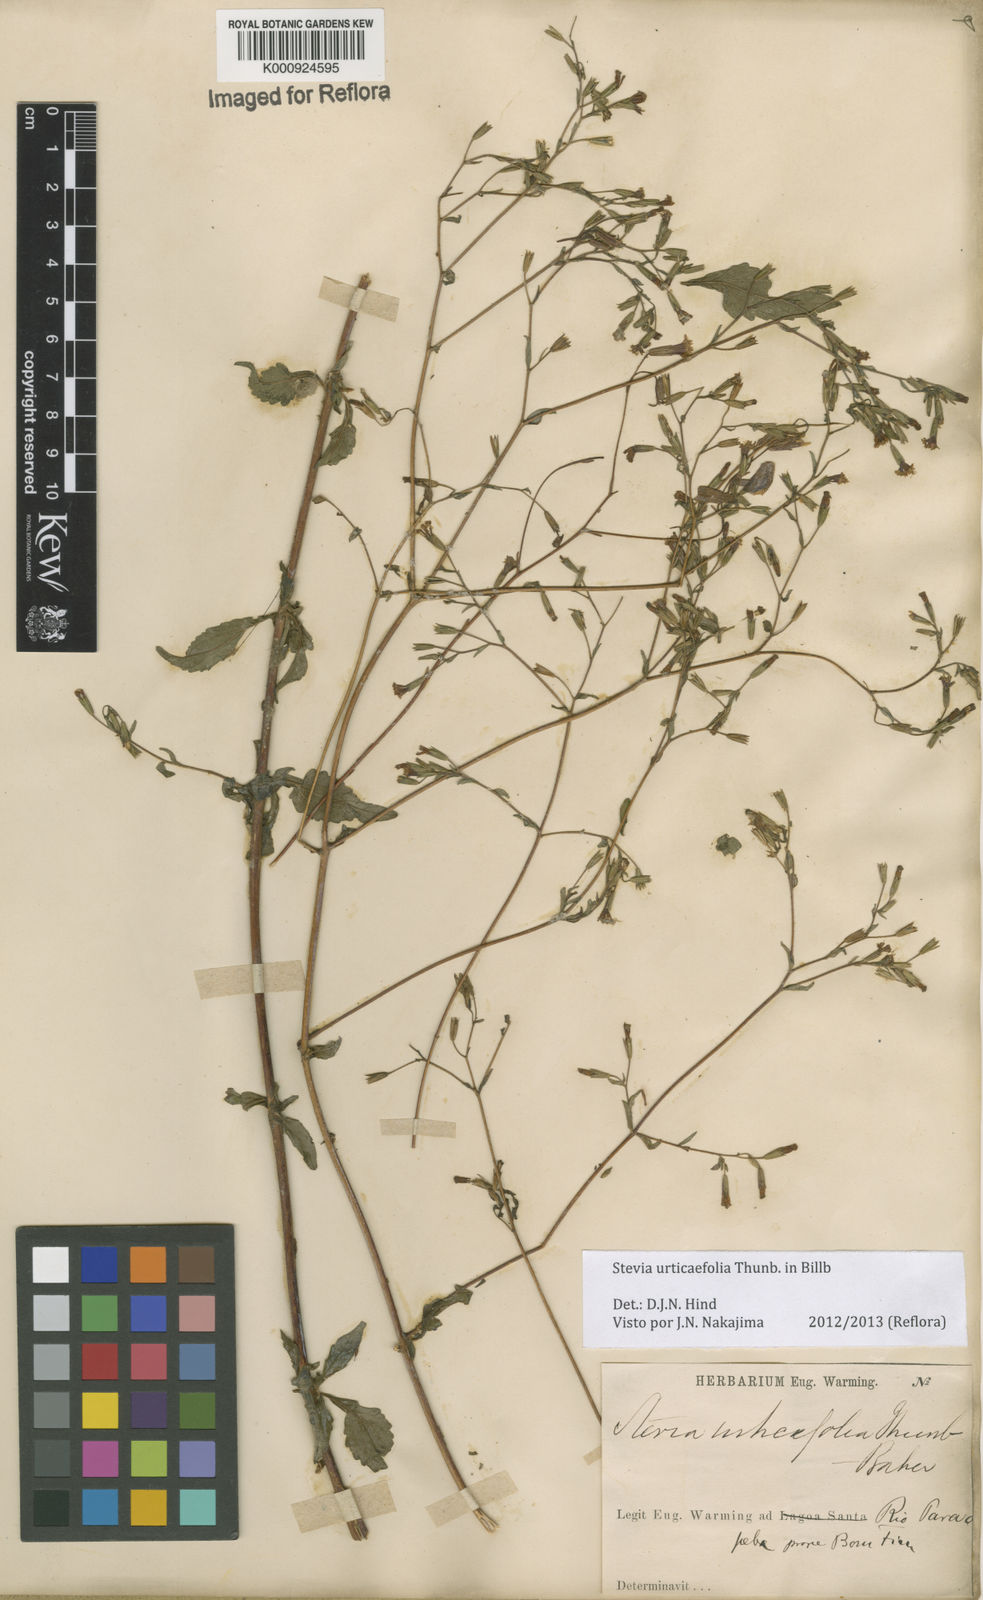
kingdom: Plantae
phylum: Tracheophyta
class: Magnoliopsida
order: Asterales
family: Asteraceae
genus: Stevia
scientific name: Stevia urticifolia
